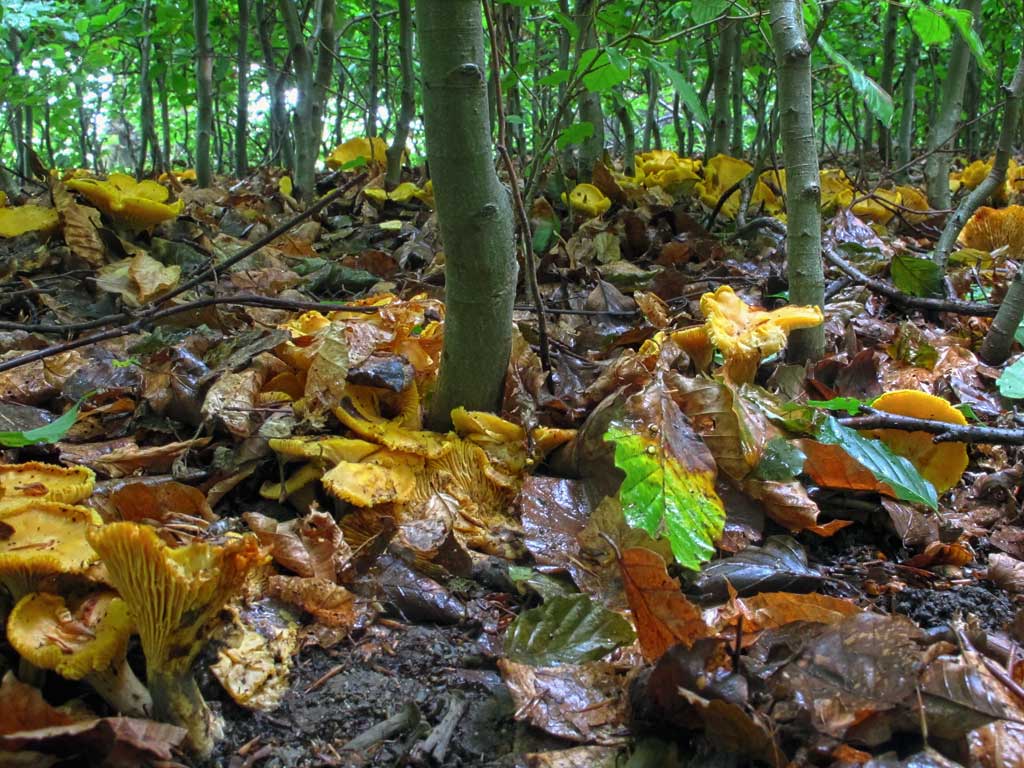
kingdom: Fungi
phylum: Basidiomycota
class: Agaricomycetes
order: Cantharellales
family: Hydnaceae
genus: Cantharellus
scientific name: Cantharellus pallens
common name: bleg kantarel
